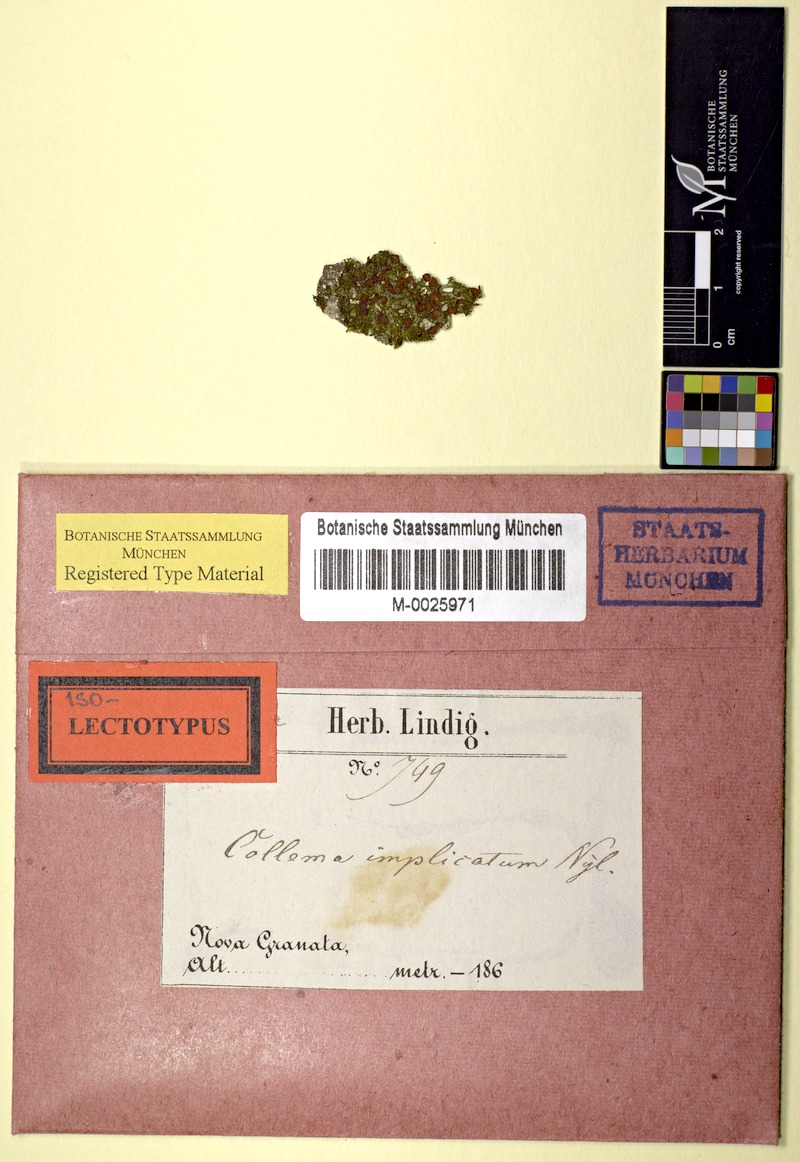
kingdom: Fungi
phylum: Ascomycota
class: Lecanoromycetes
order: Peltigerales
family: Collemataceae
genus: Collema
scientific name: Collema implicatum
